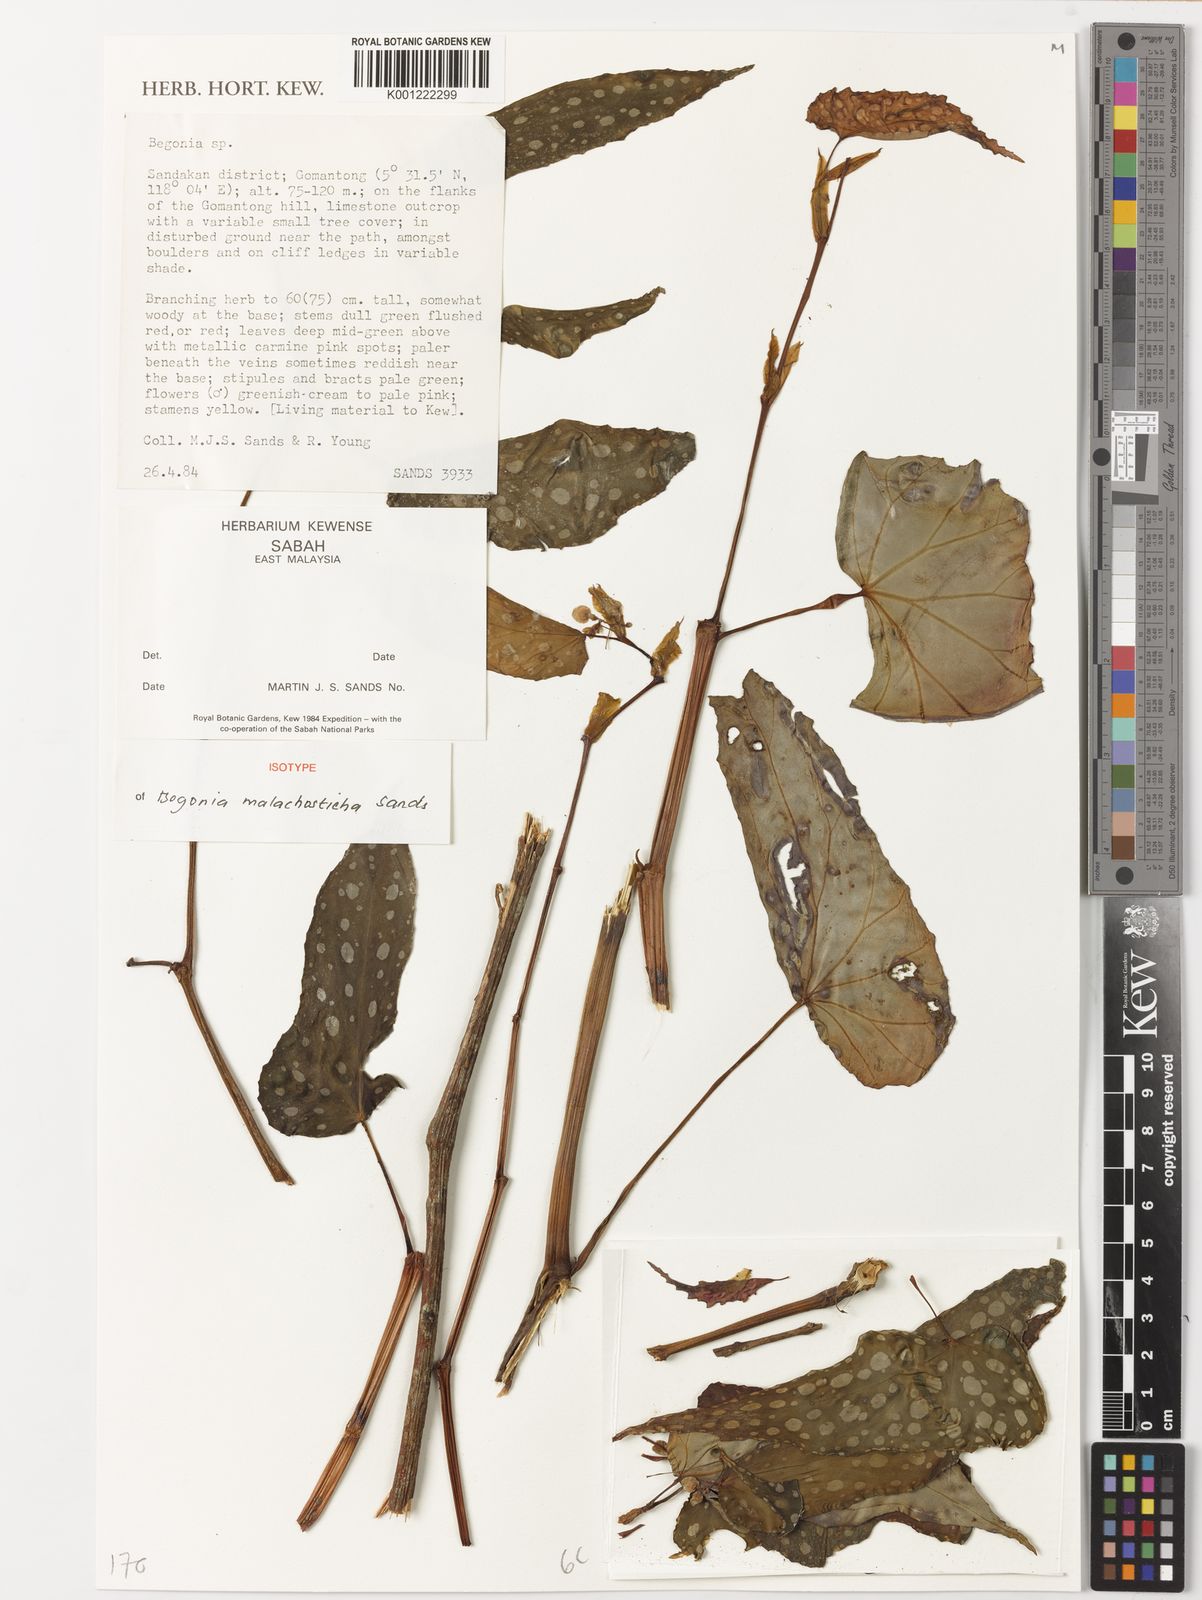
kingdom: Plantae
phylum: Tracheophyta
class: Magnoliopsida
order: Cucurbitales
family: Begoniaceae
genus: Begonia
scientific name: Begonia malachosticta
